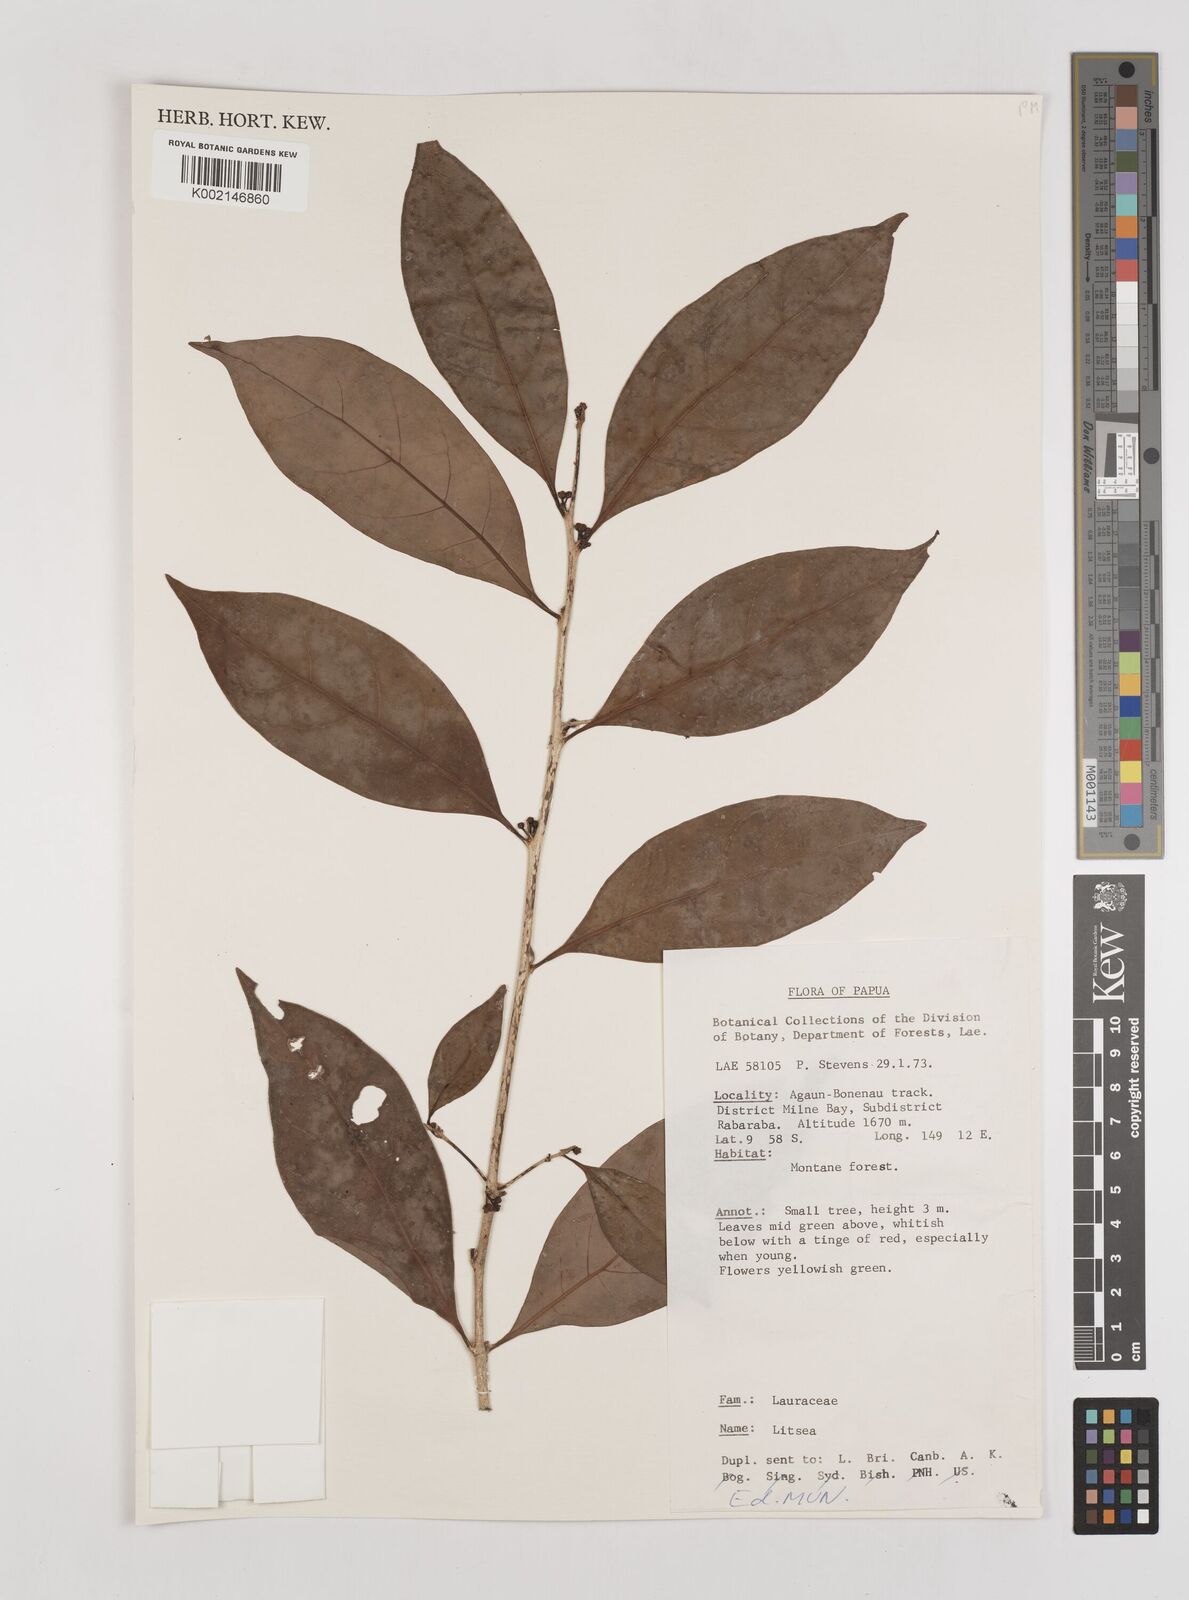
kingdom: Plantae
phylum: Tracheophyta
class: Magnoliopsida
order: Laurales
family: Lauraceae
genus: Litsea
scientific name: Litsea
